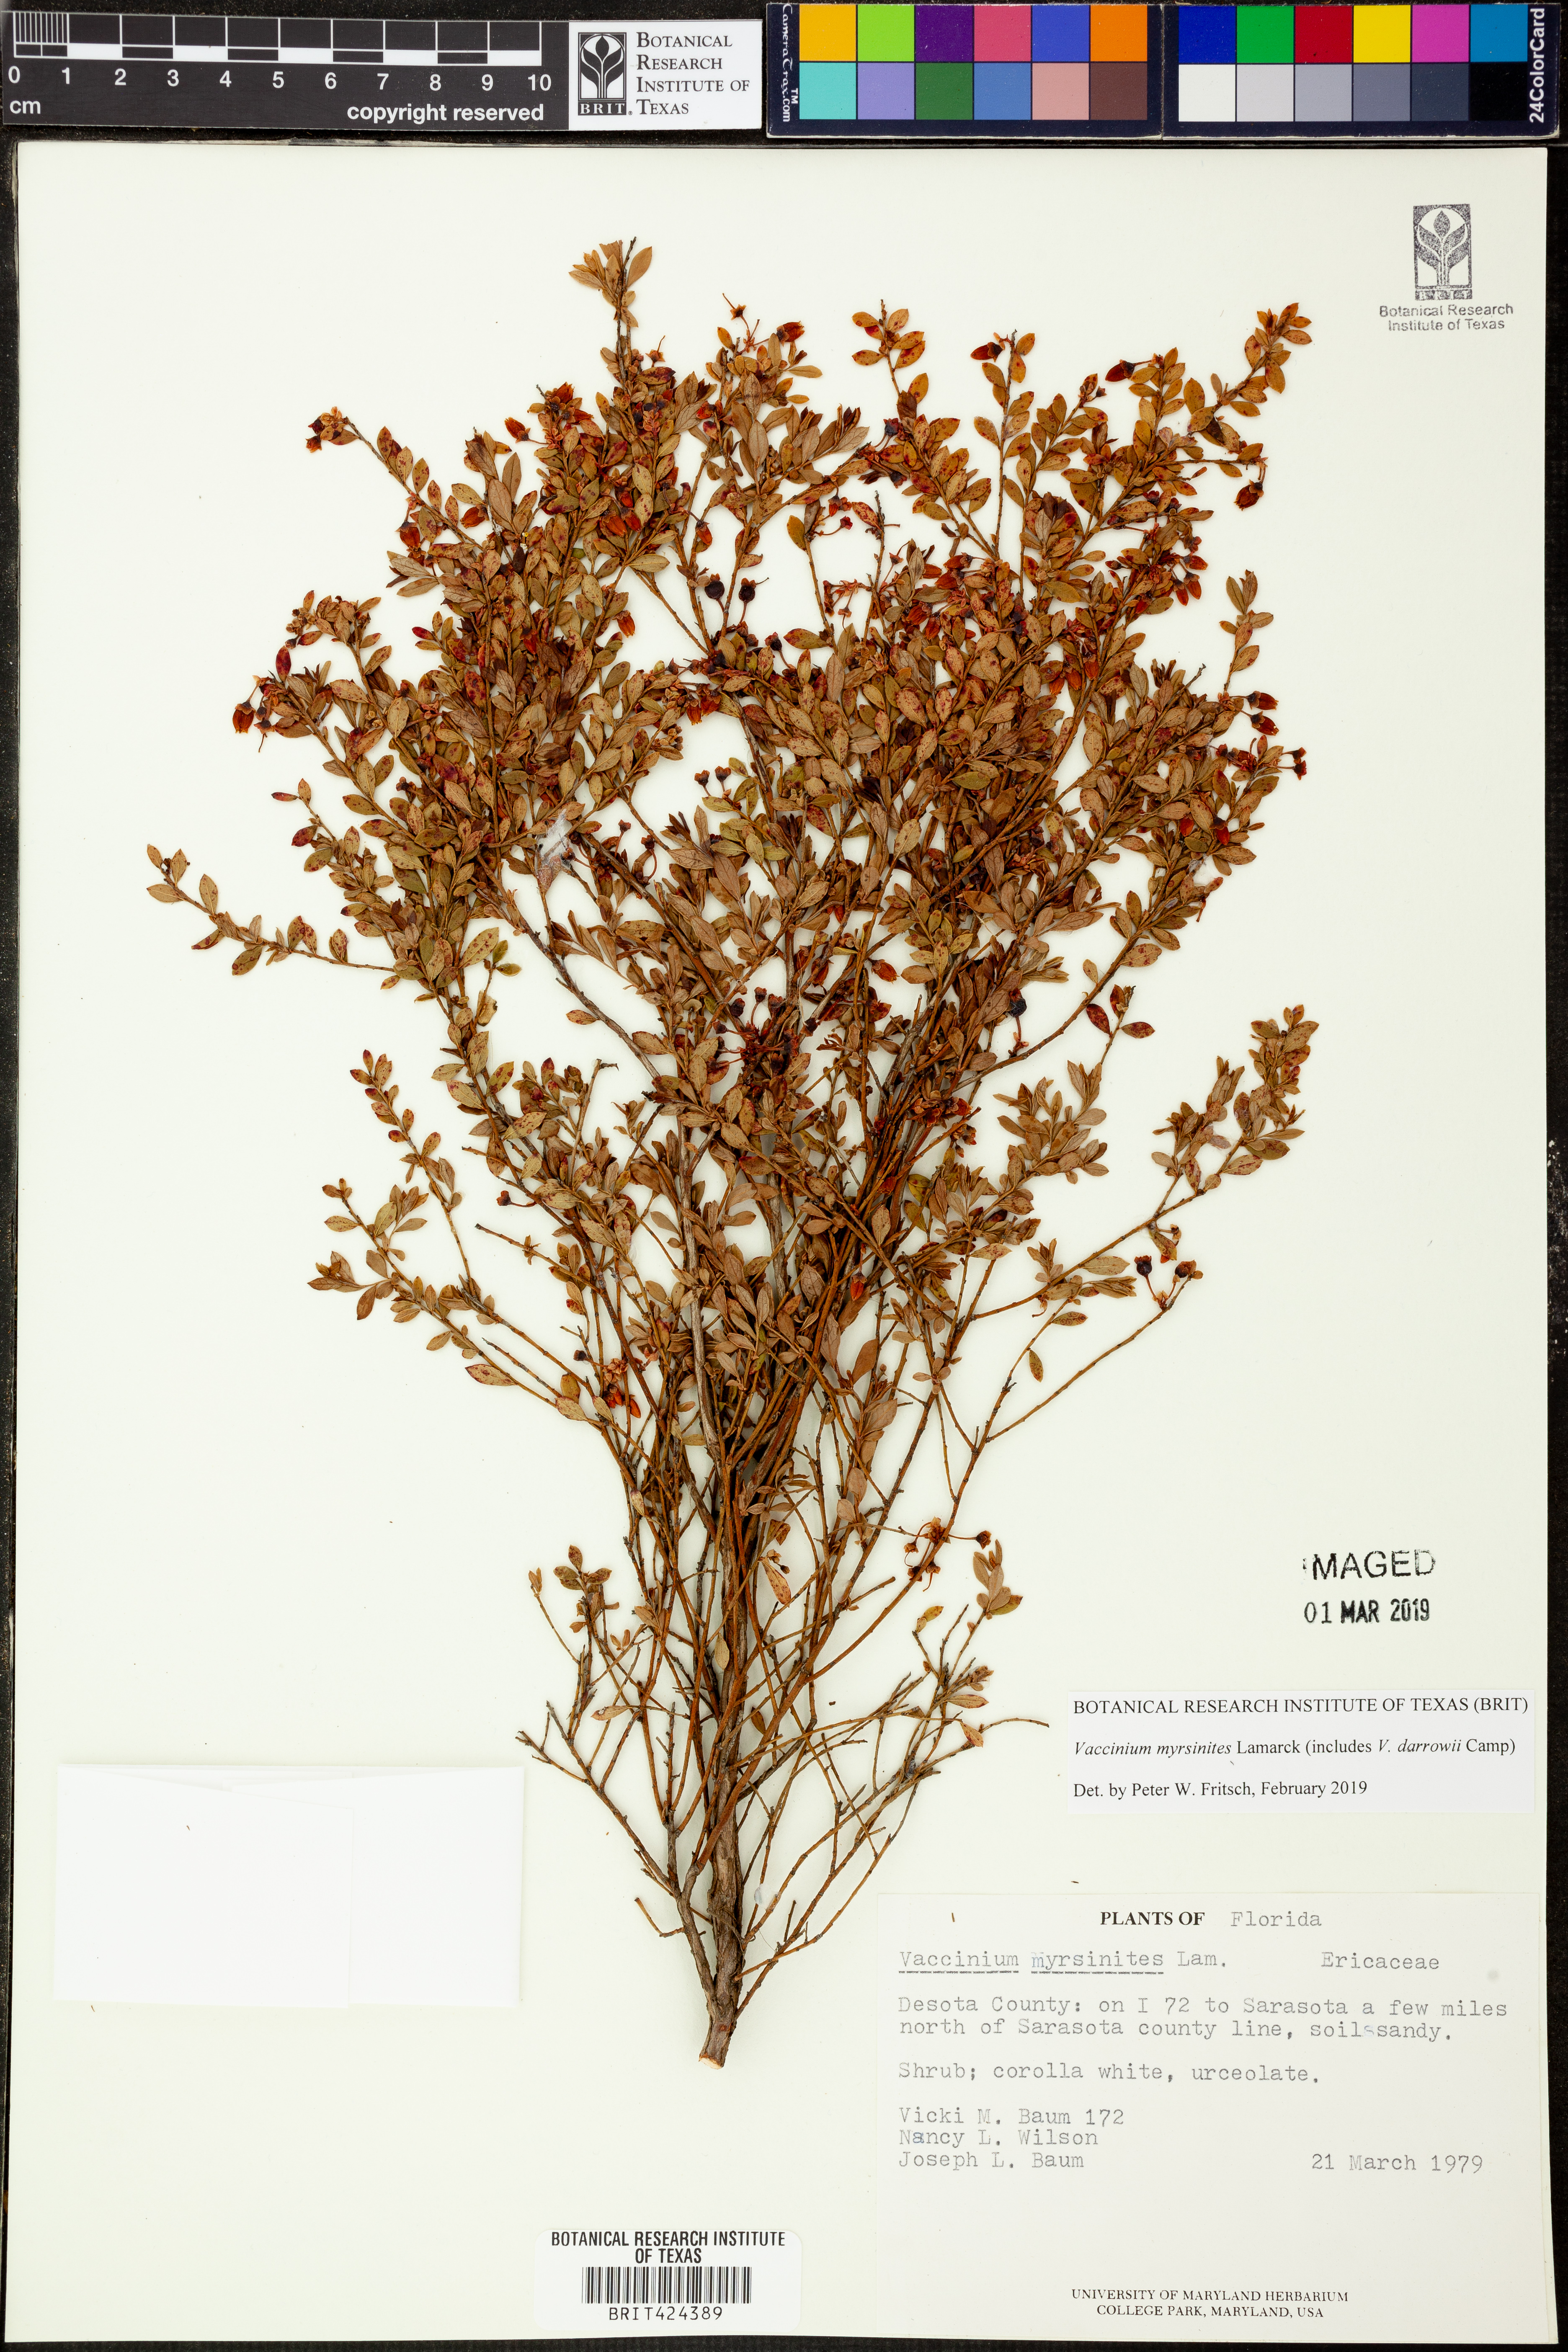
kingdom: Plantae
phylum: Tracheophyta
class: Magnoliopsida
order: Ericales
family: Ericaceae
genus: Vaccinium
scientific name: Vaccinium myrsinites
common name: Evergreen blueberry
